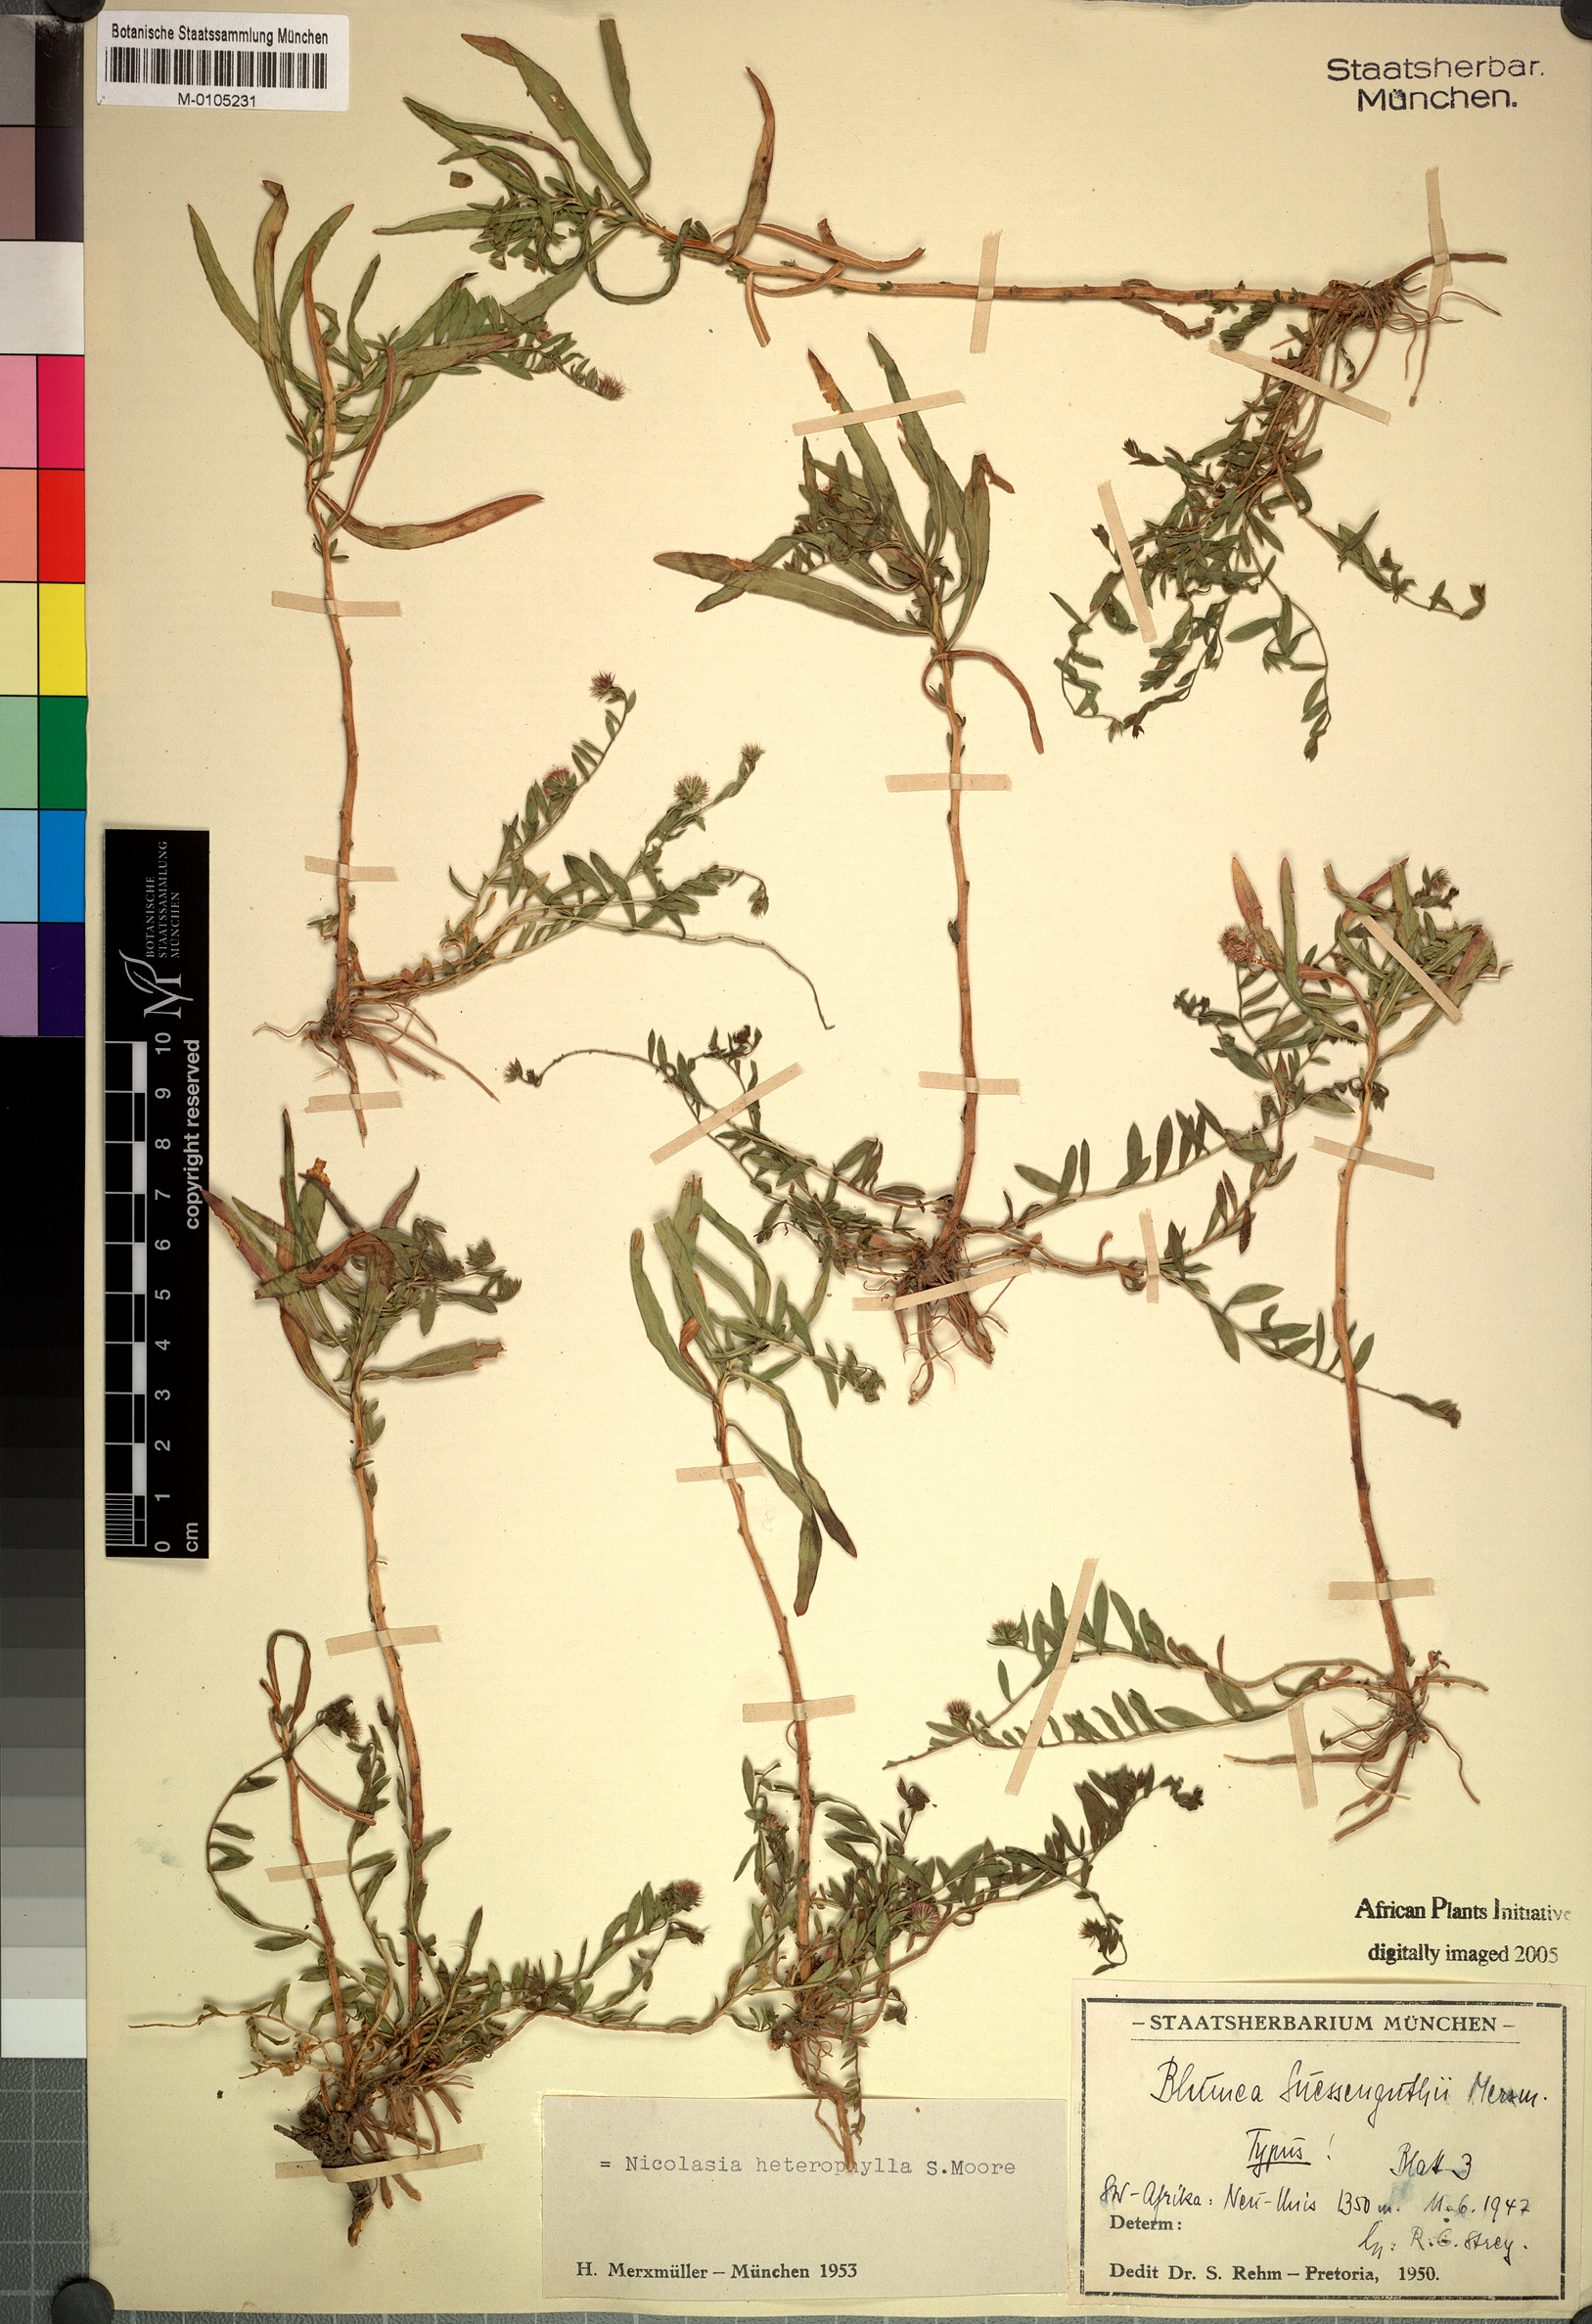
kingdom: Plantae
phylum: Tracheophyta
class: Magnoliopsida
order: Asterales
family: Asteraceae
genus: Nicolasia
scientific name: Nicolasia heterophylla
